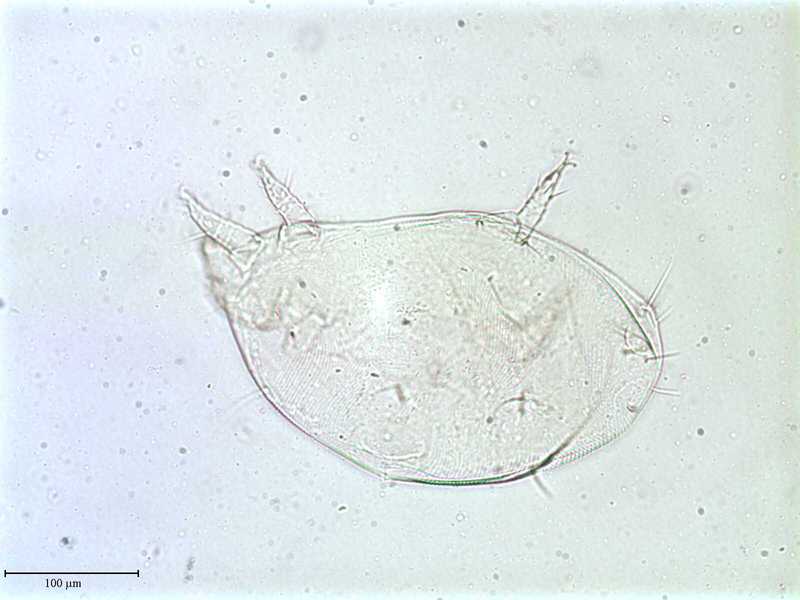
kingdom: Animalia
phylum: Arthropoda
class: Arachnida
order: Trombidiformes
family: Resinacaridae
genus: Resinacarus
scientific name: Resinacarus resinatus
